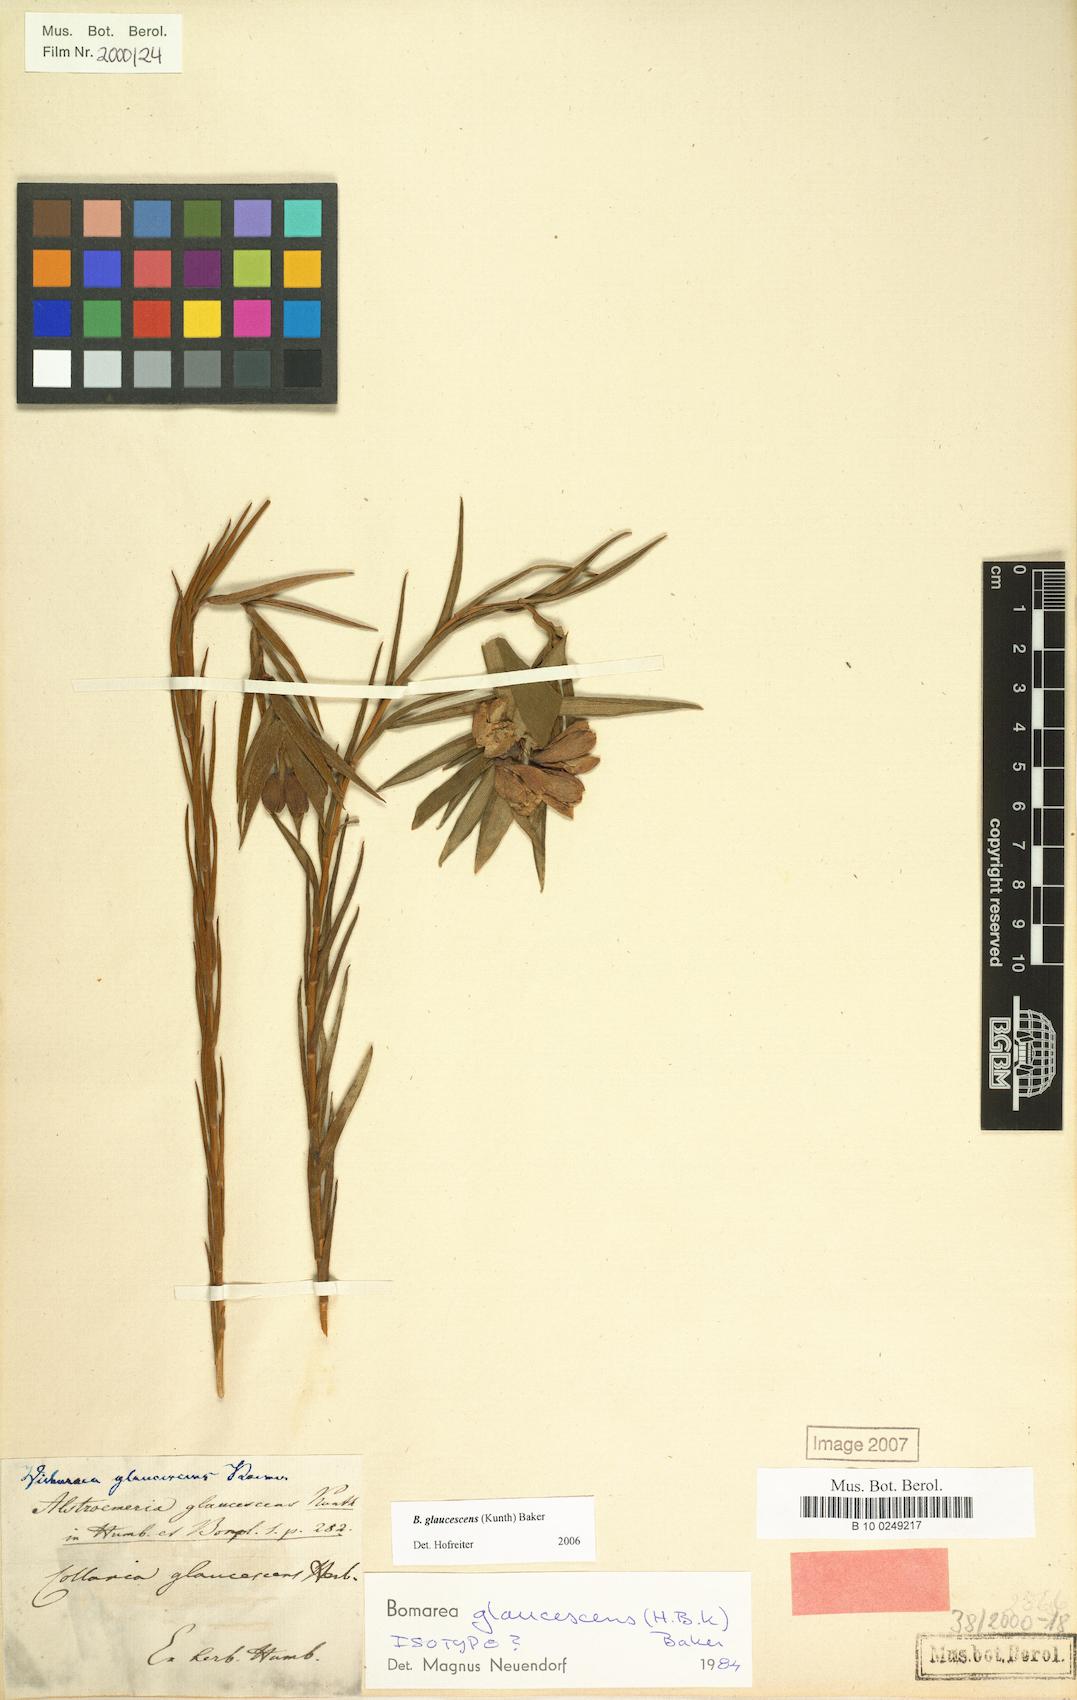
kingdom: Plantae
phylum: Tracheophyta
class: Liliopsida
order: Liliales
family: Alstroemeriaceae
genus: Bomarea
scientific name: Bomarea glaucescens
